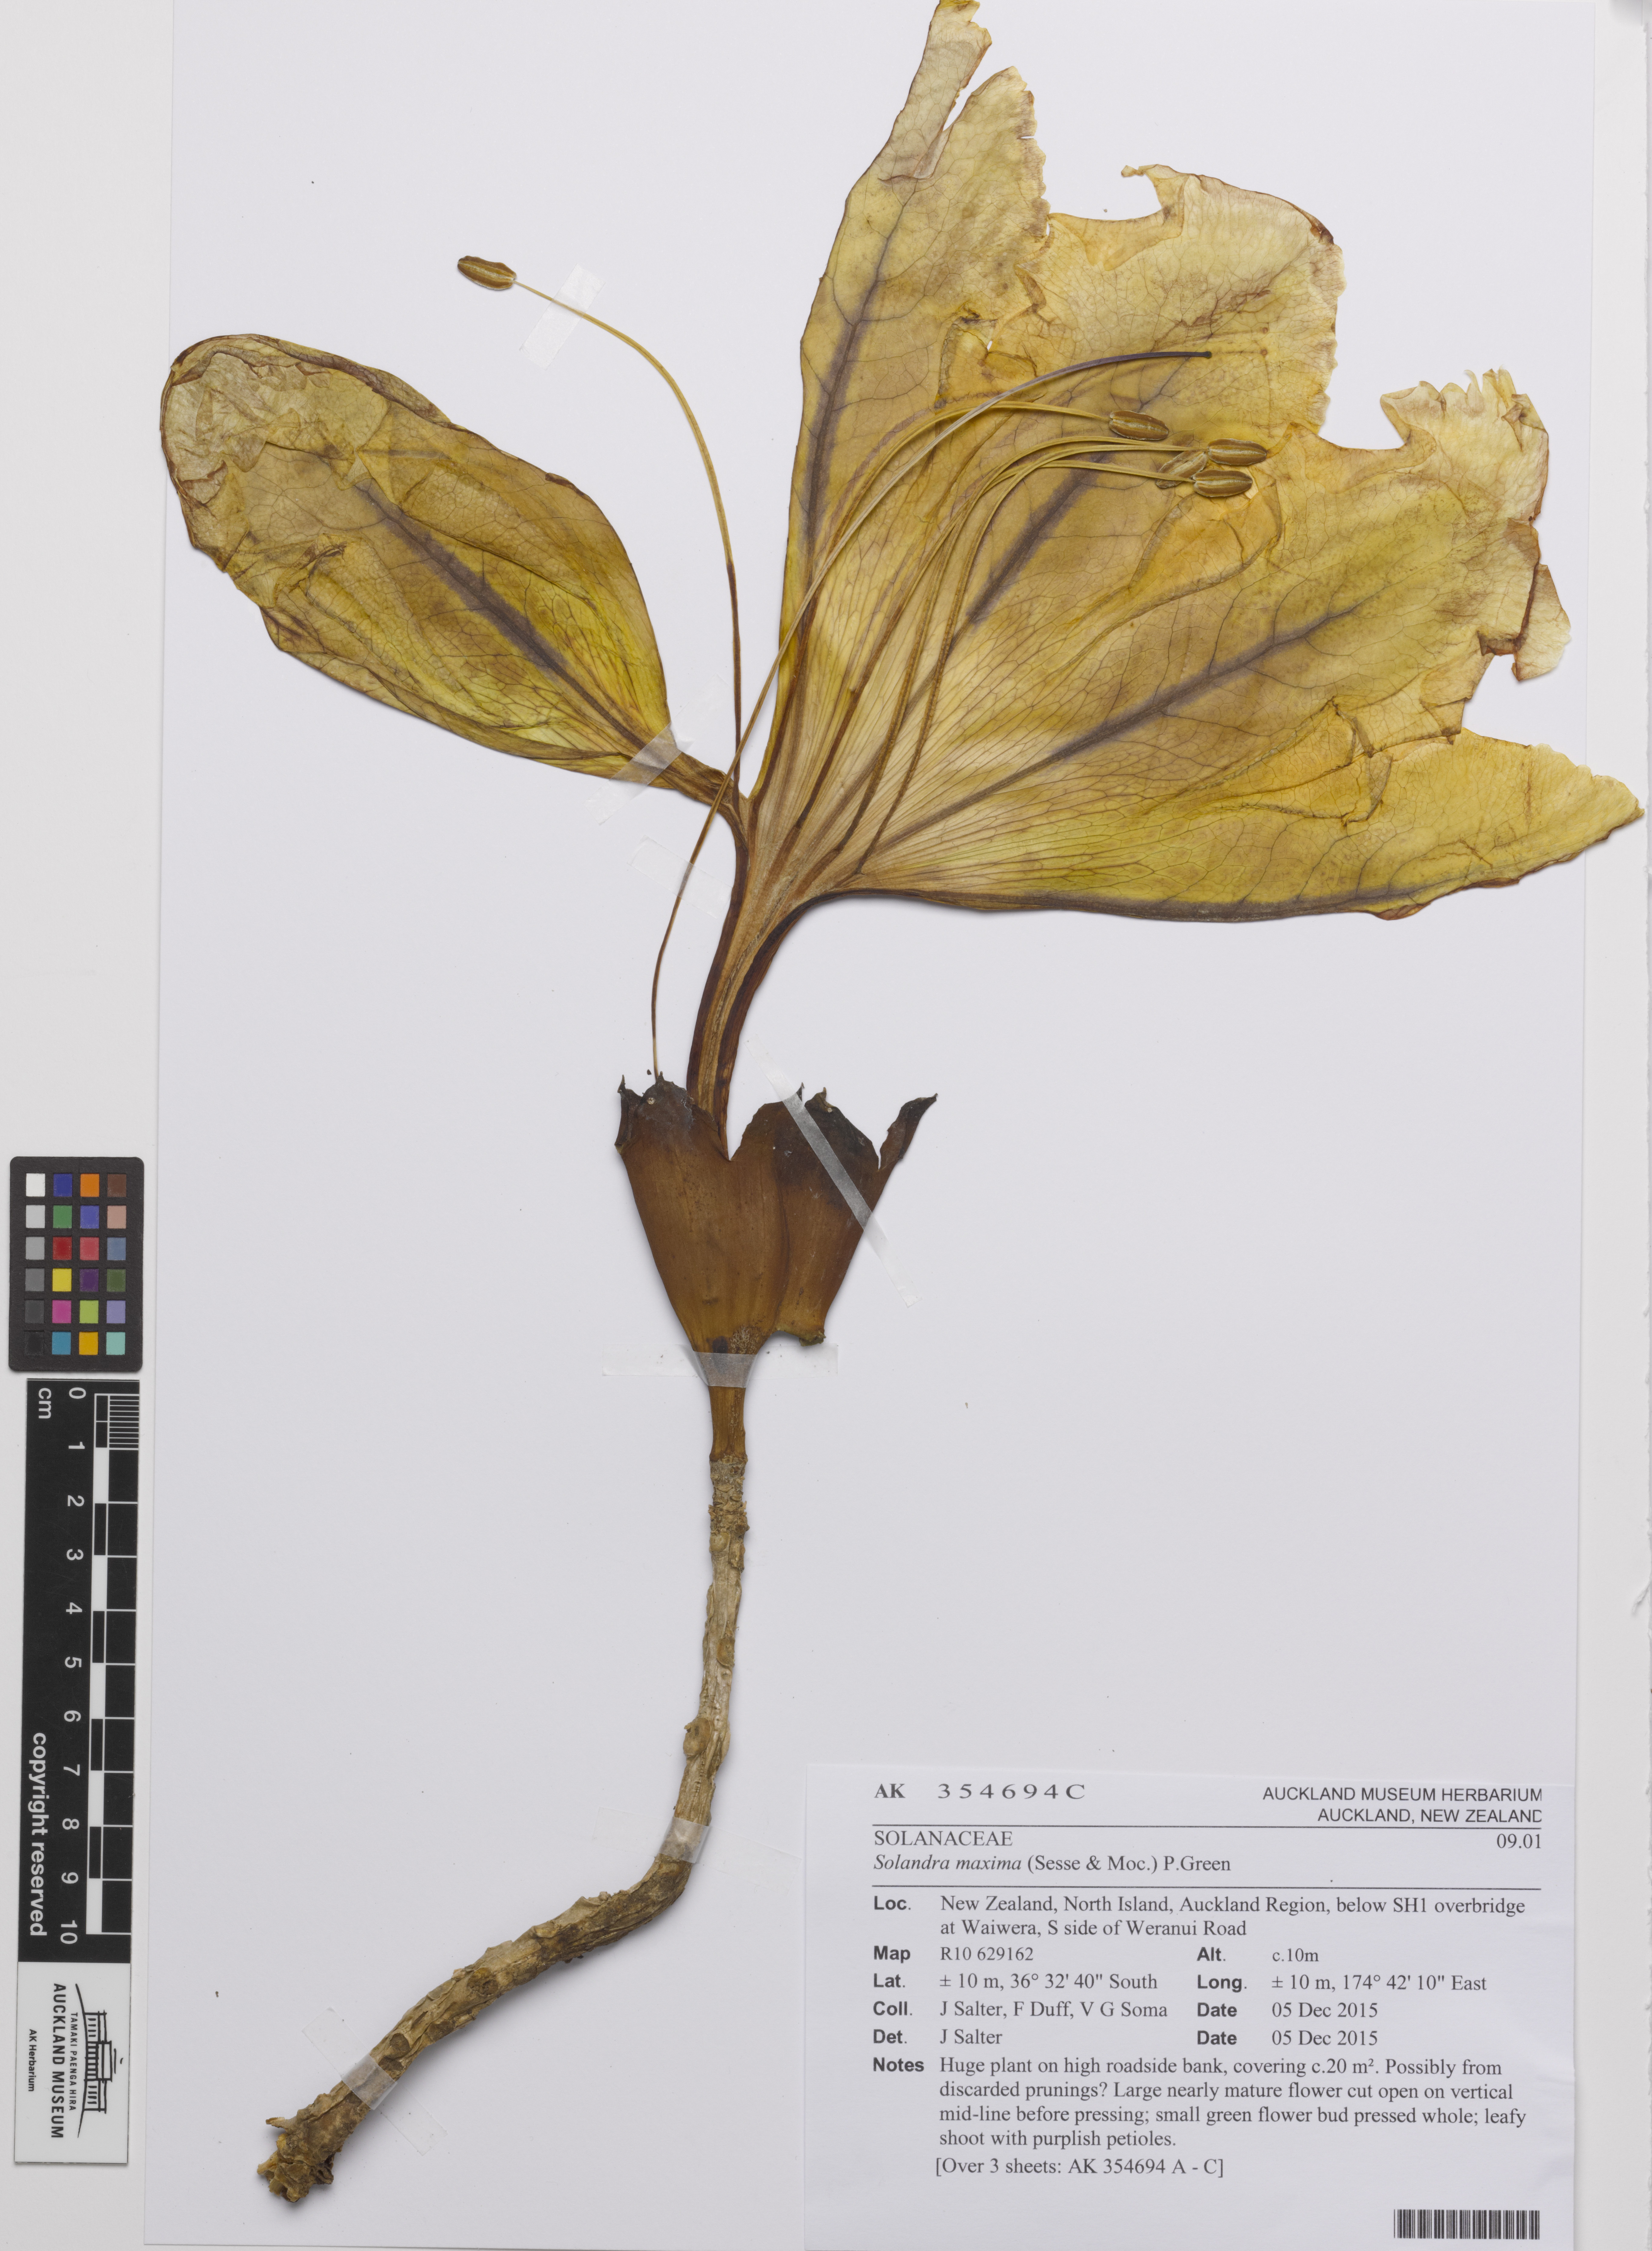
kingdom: Plantae
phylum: Tracheophyta
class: Magnoliopsida
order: Solanales
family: Solanaceae
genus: Solandra
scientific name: Solandra maxima
